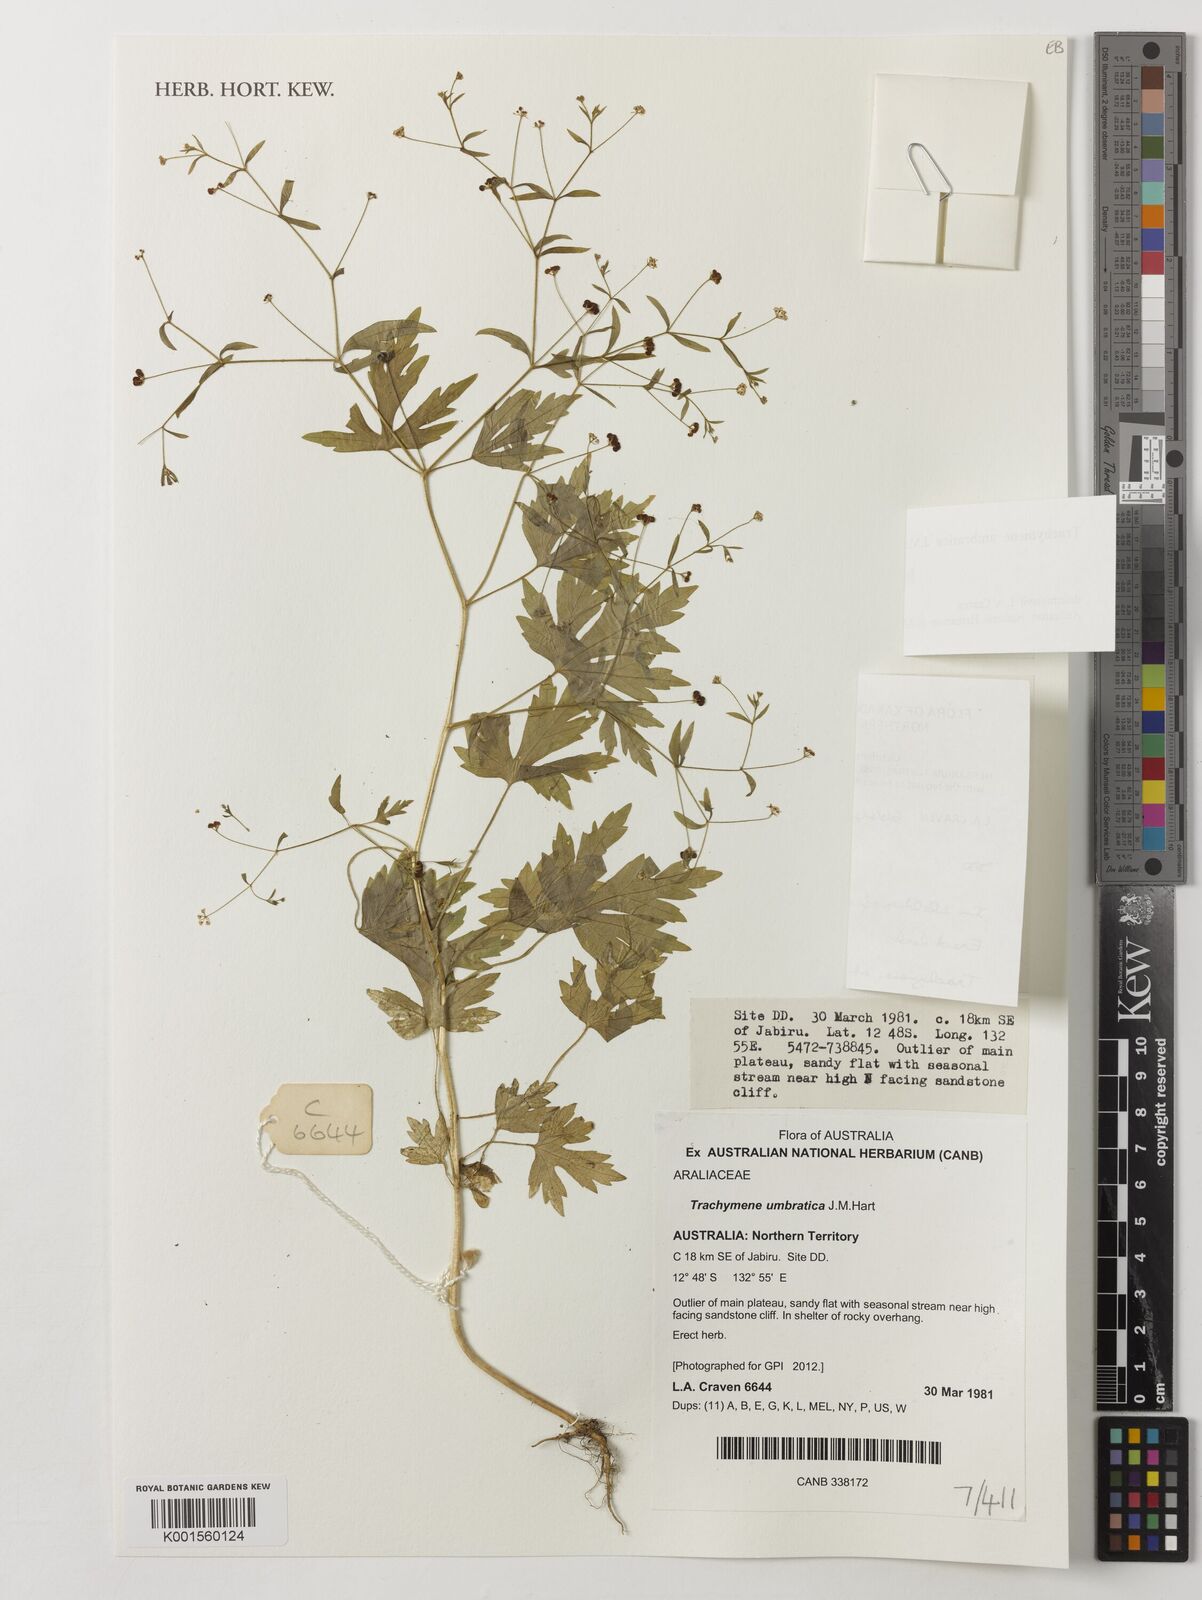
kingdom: Plantae
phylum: Tracheophyta
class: Magnoliopsida
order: Apiales
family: Araliaceae
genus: Trachymene
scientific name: Trachymene umbratica
